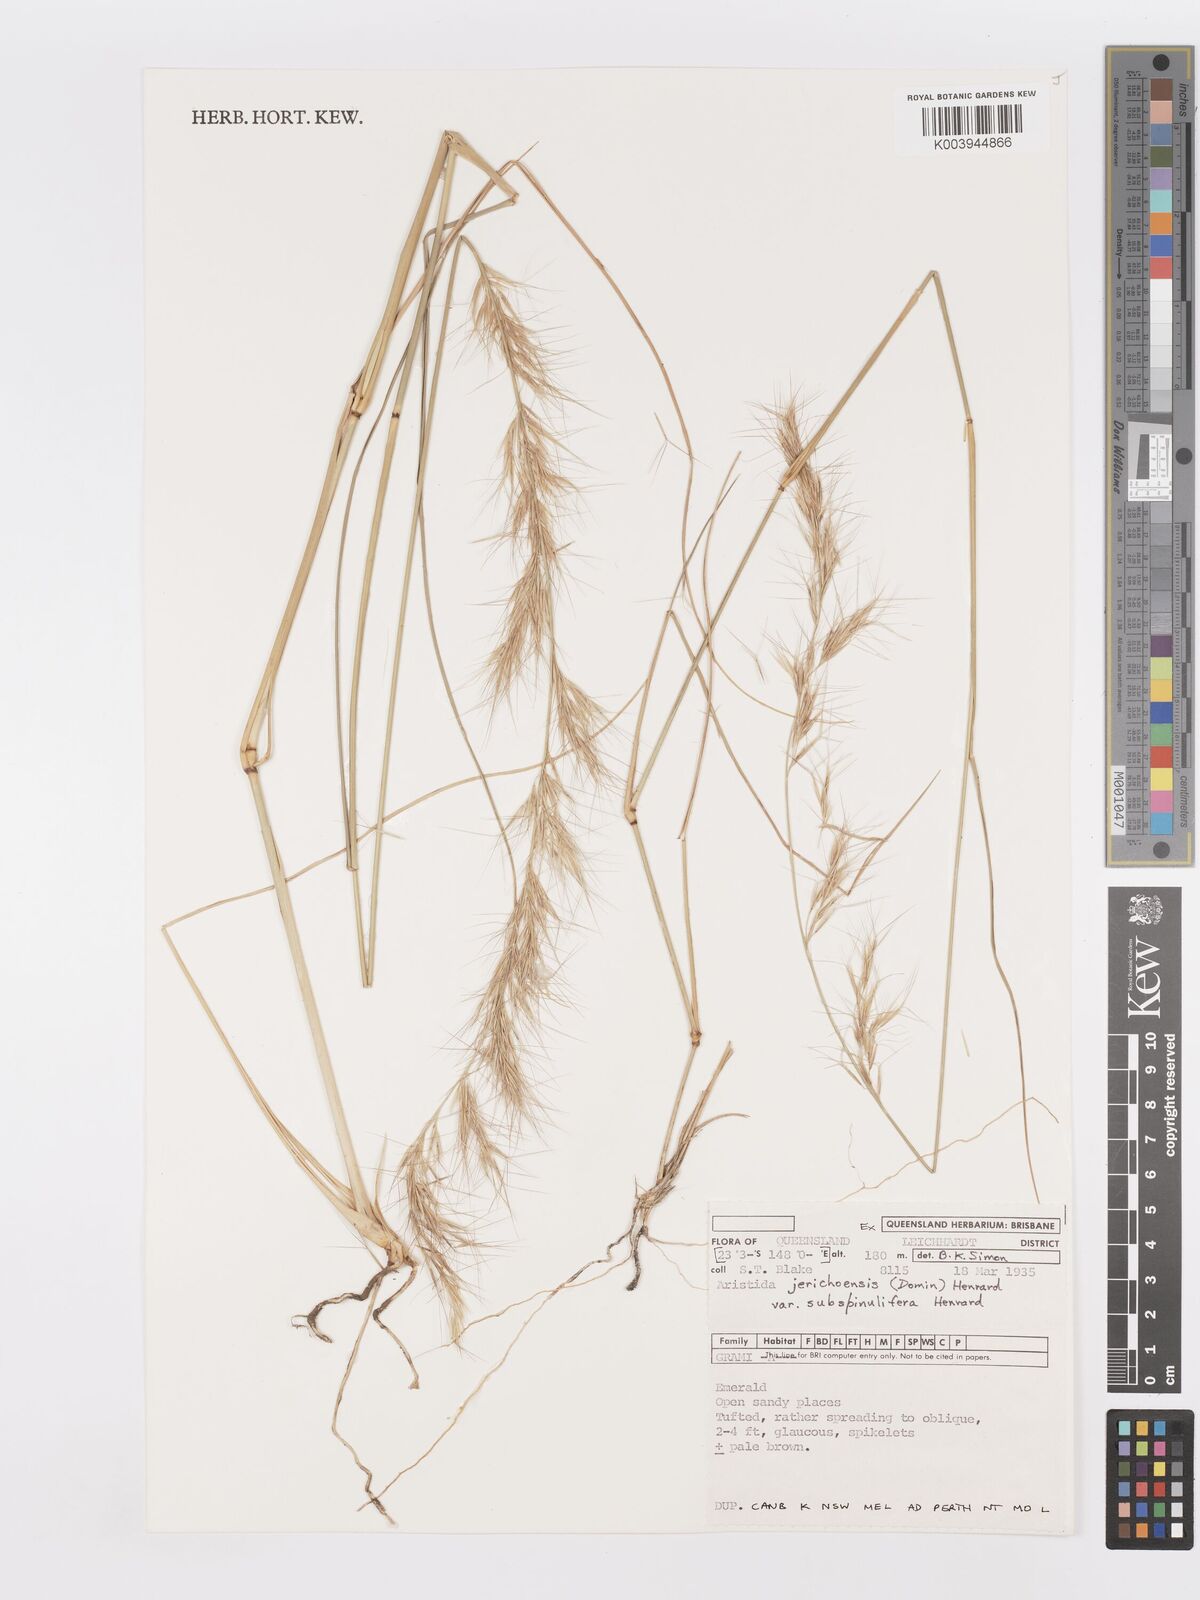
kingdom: Plantae
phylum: Tracheophyta
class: Liliopsida
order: Poales
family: Poaceae
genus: Aristida
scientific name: Aristida jerichoensis
